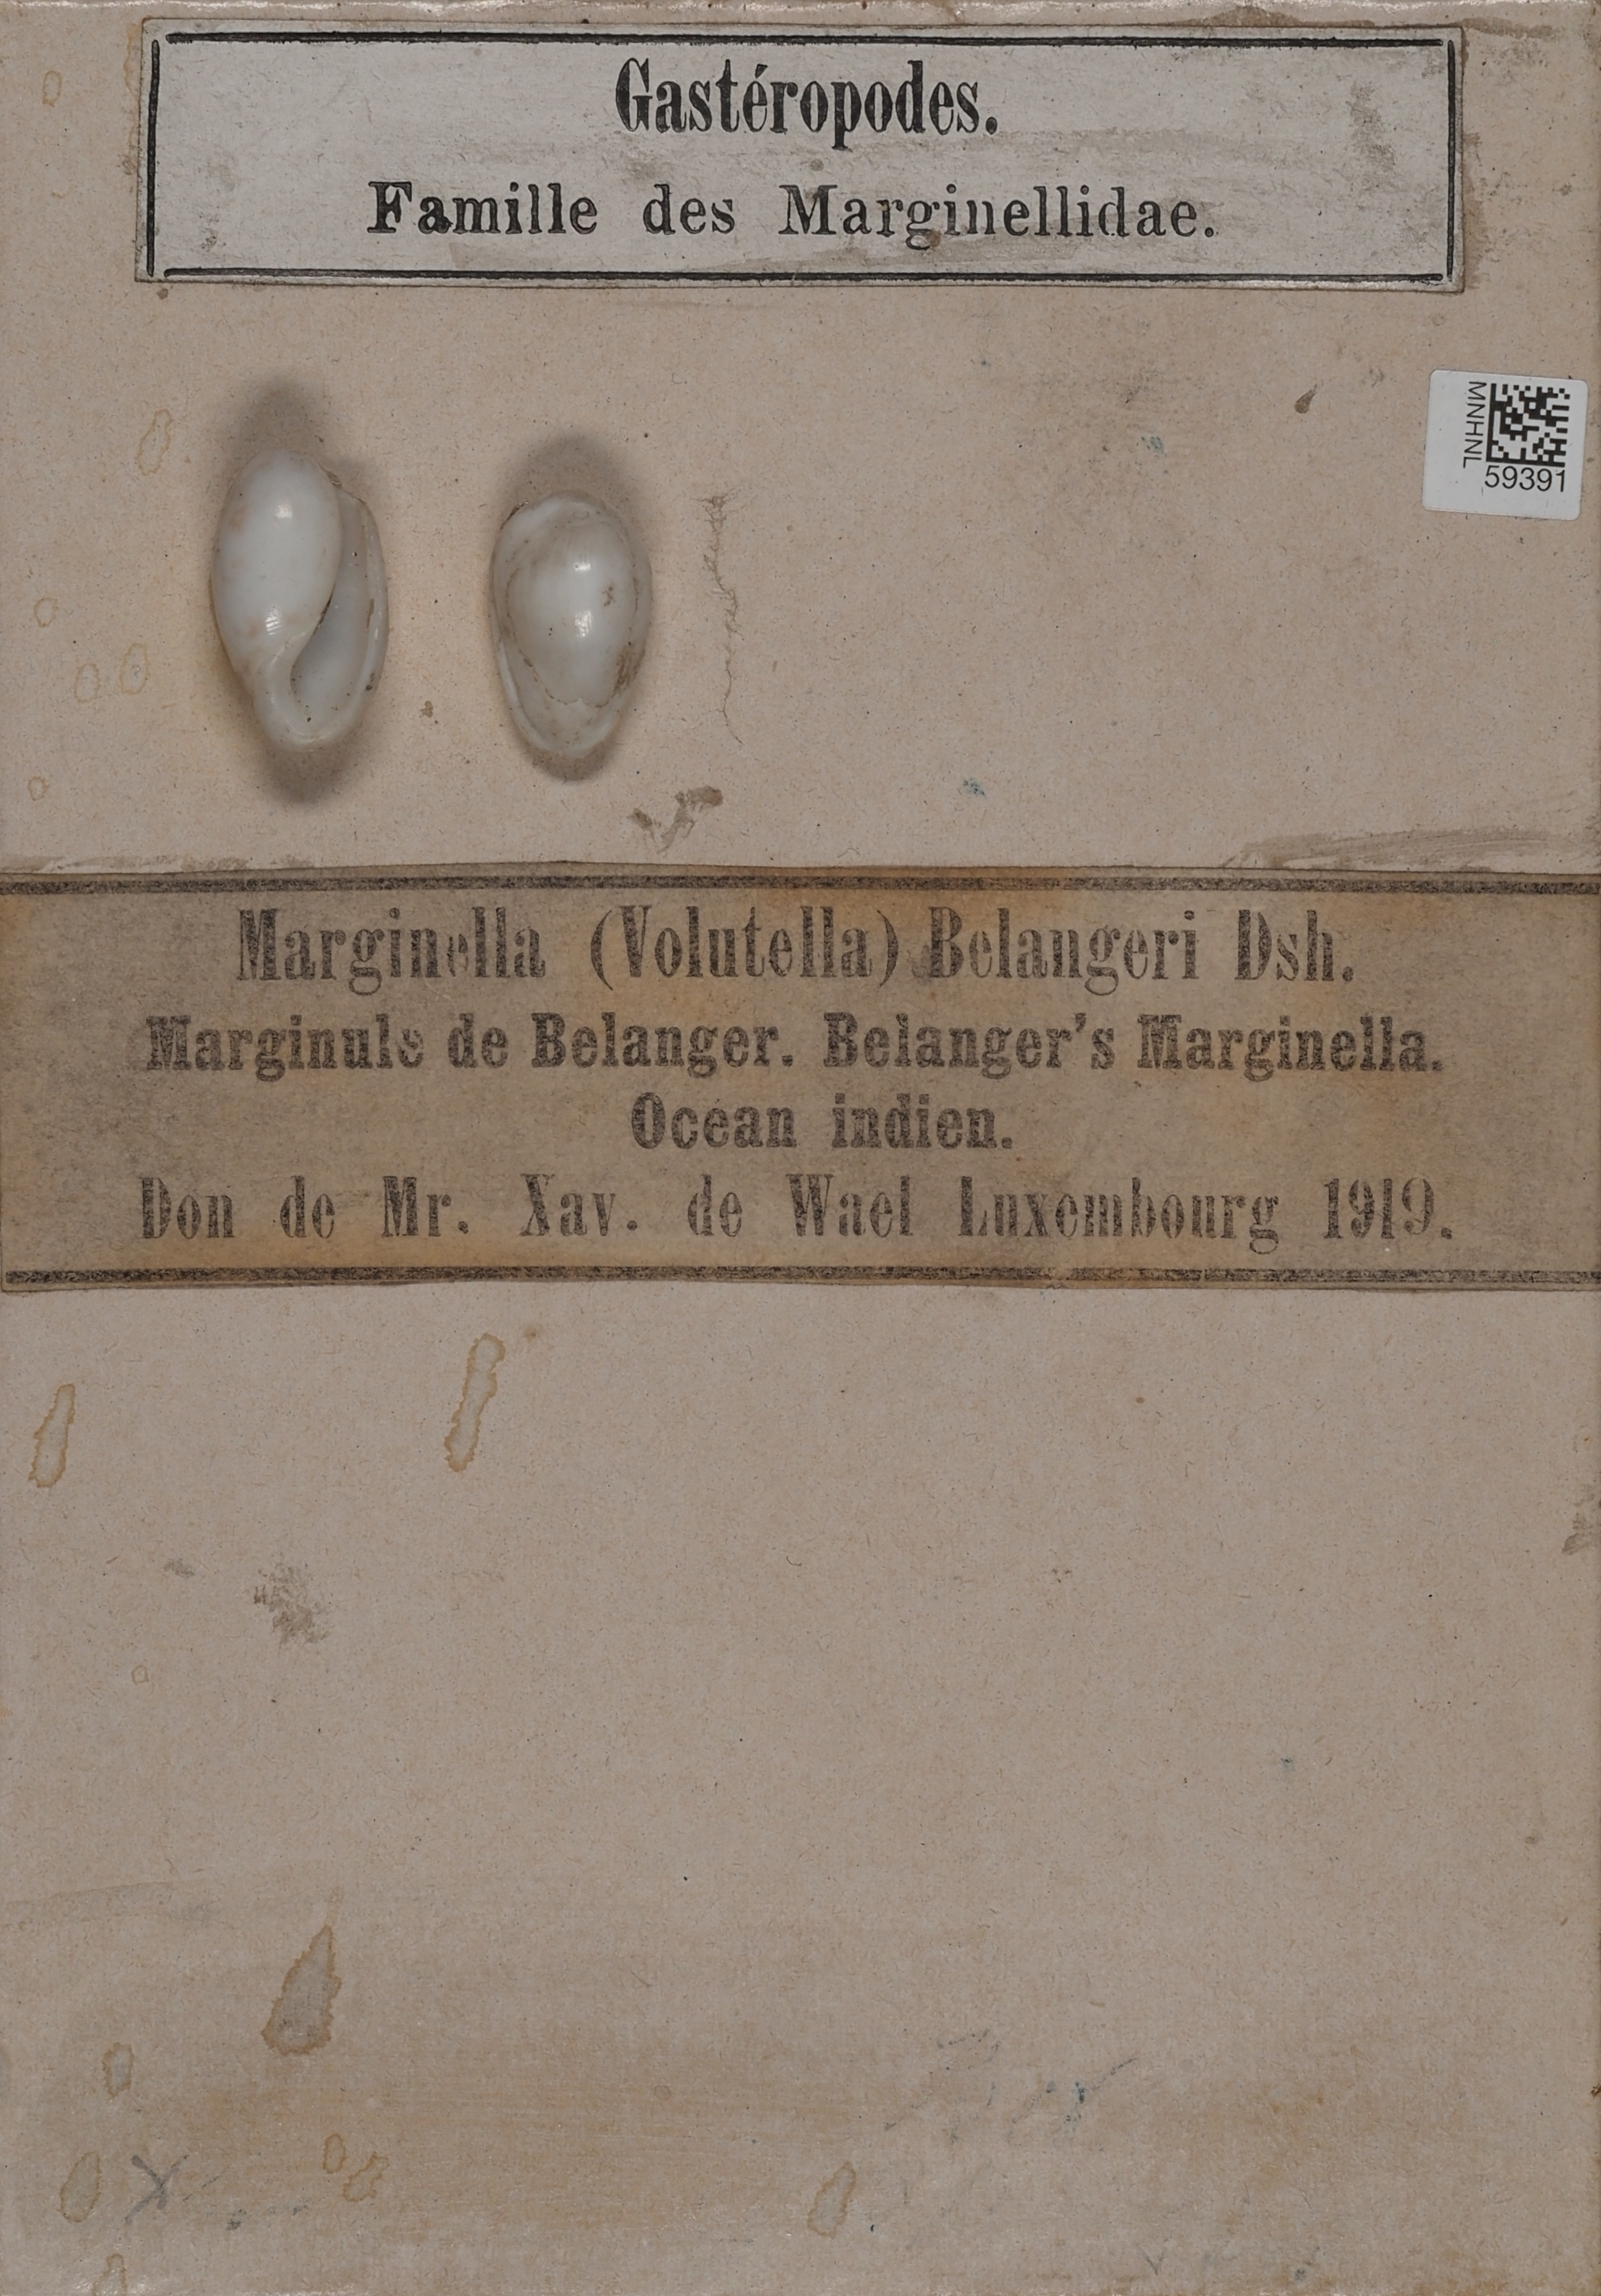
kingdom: Chromista
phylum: Cercozoa
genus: Volutella
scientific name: Volutella
